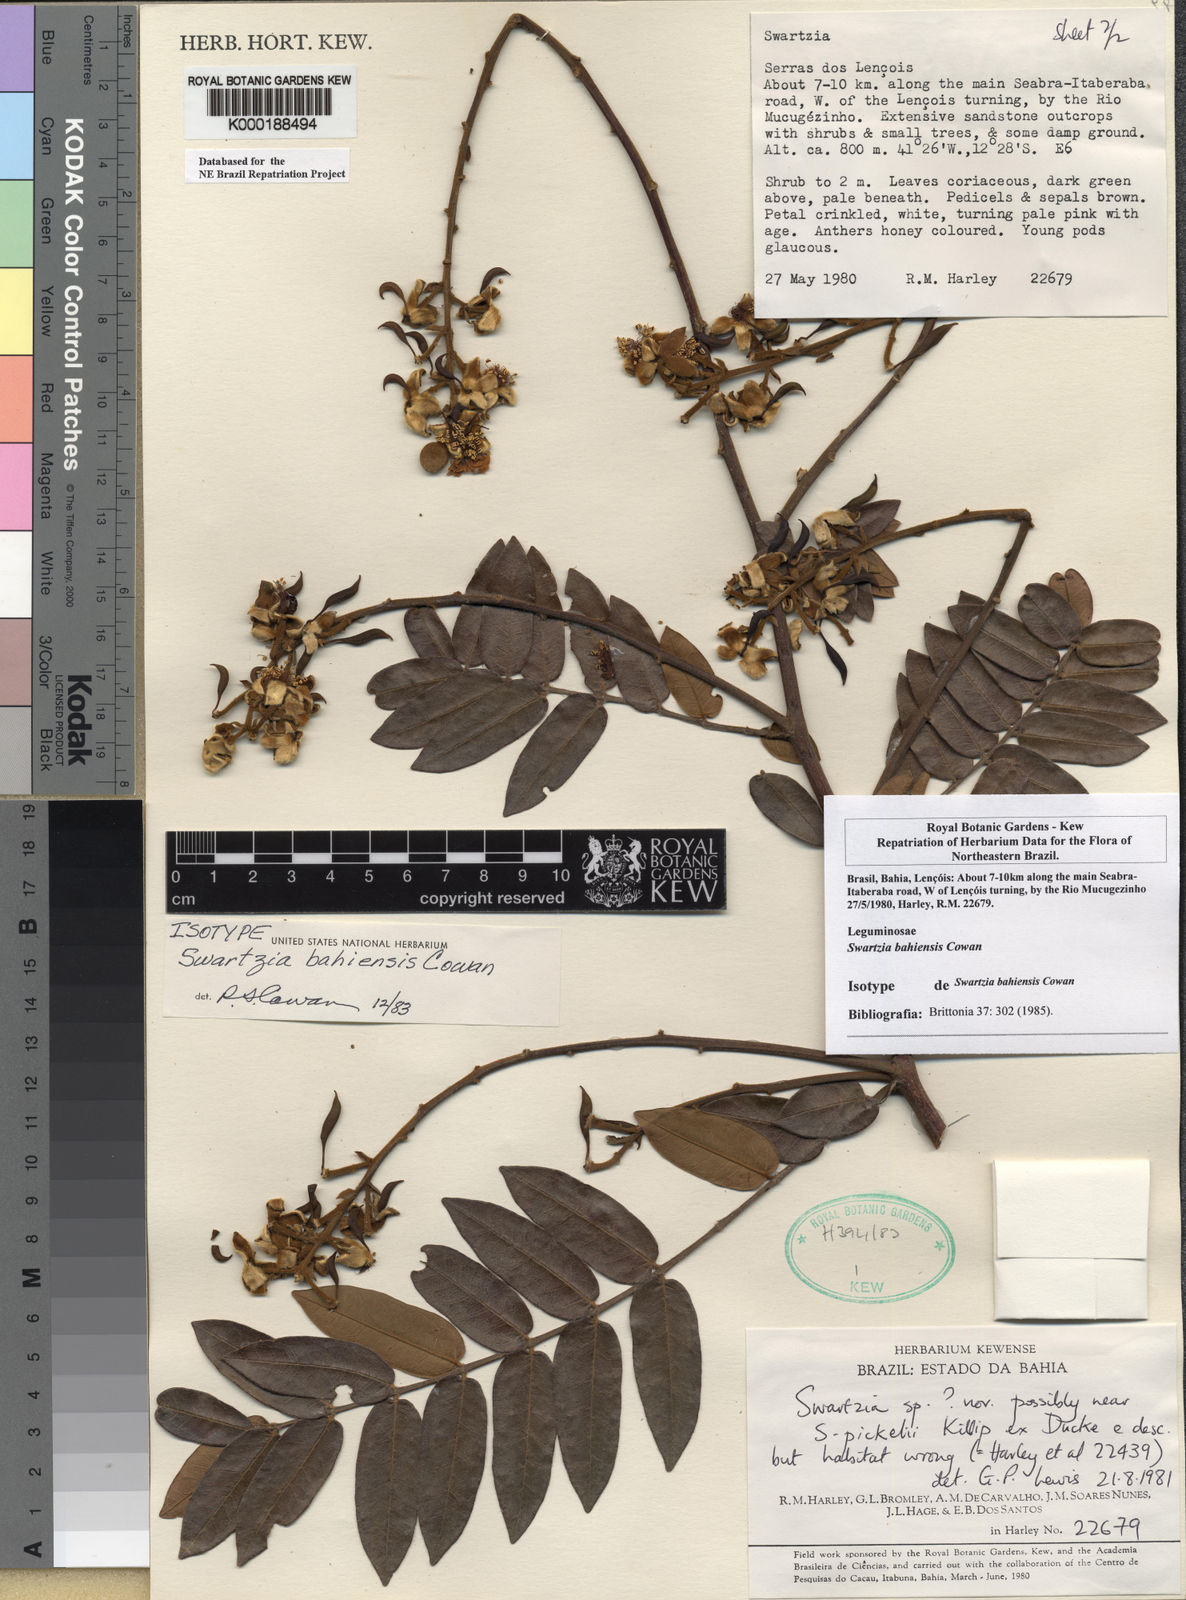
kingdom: Plantae
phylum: Tracheophyta
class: Magnoliopsida
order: Fabales
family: Fabaceae
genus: Swartzia
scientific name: Swartzia bahiensis
